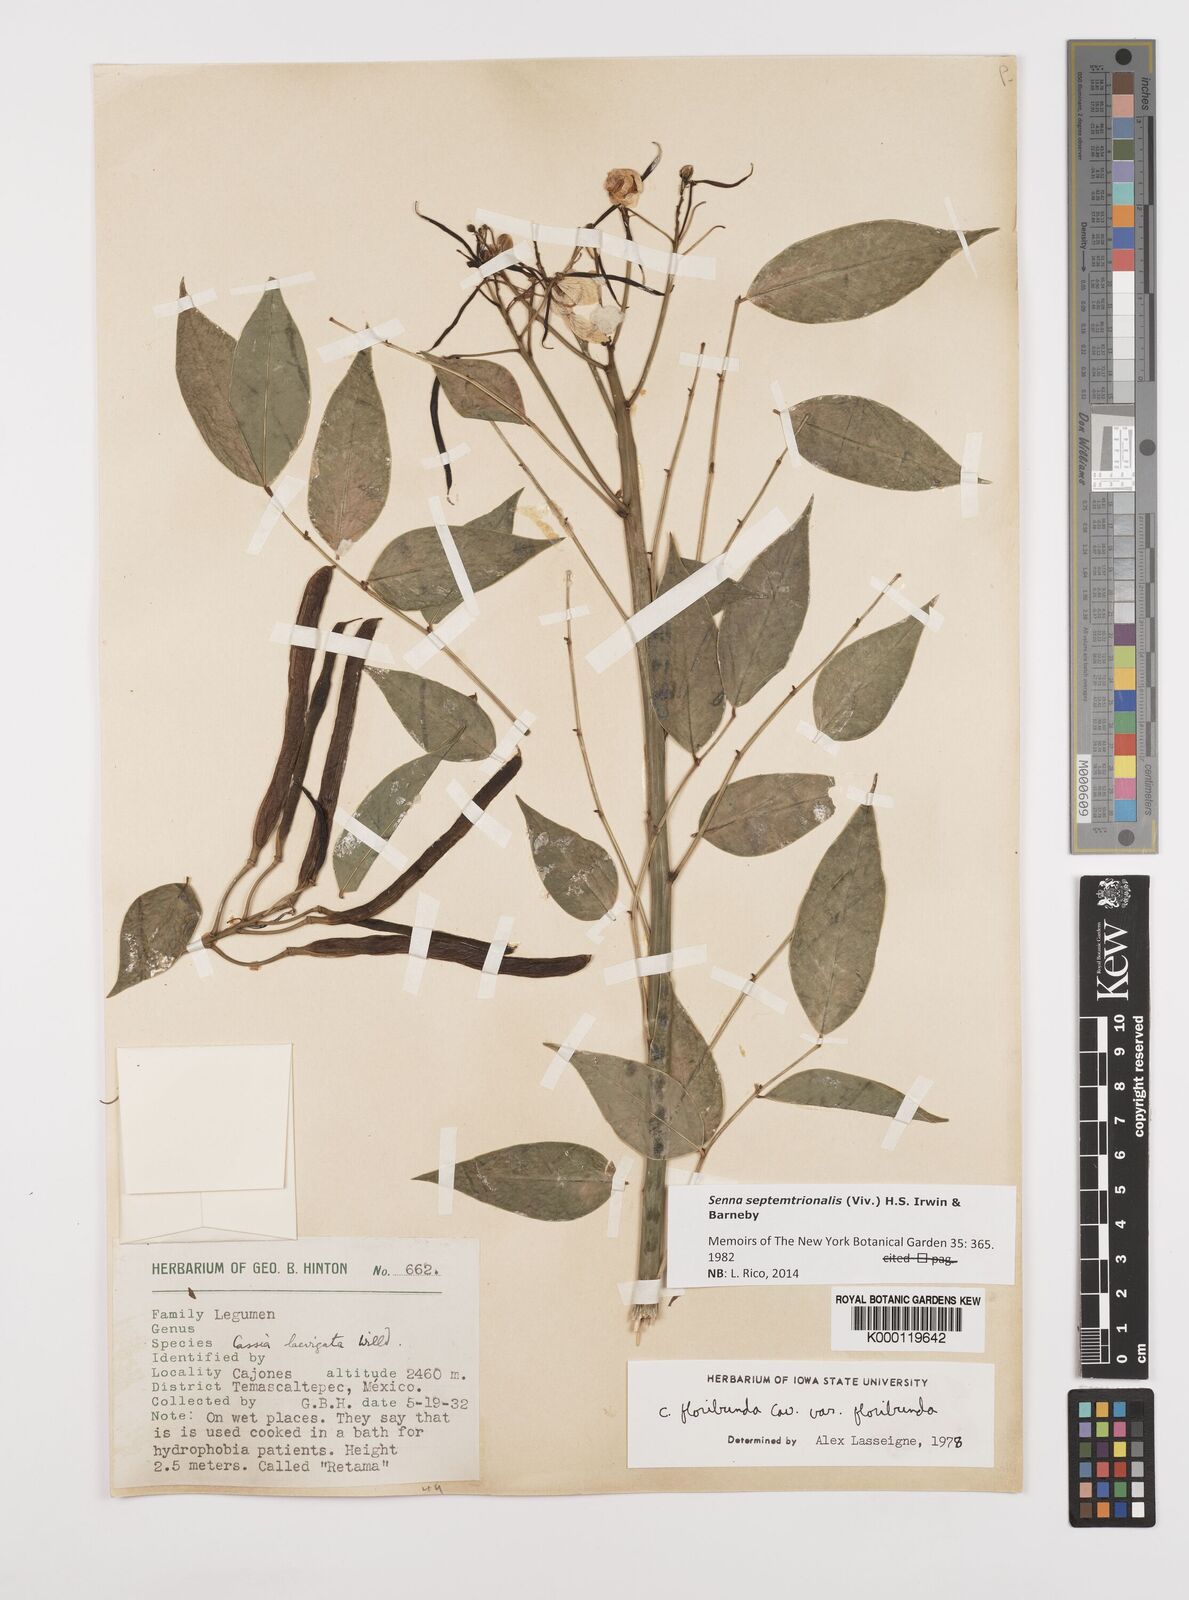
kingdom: Plantae
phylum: Tracheophyta
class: Magnoliopsida
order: Fabales
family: Fabaceae
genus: Senna
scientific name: Senna septemtrionalis
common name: Arsenic bush
